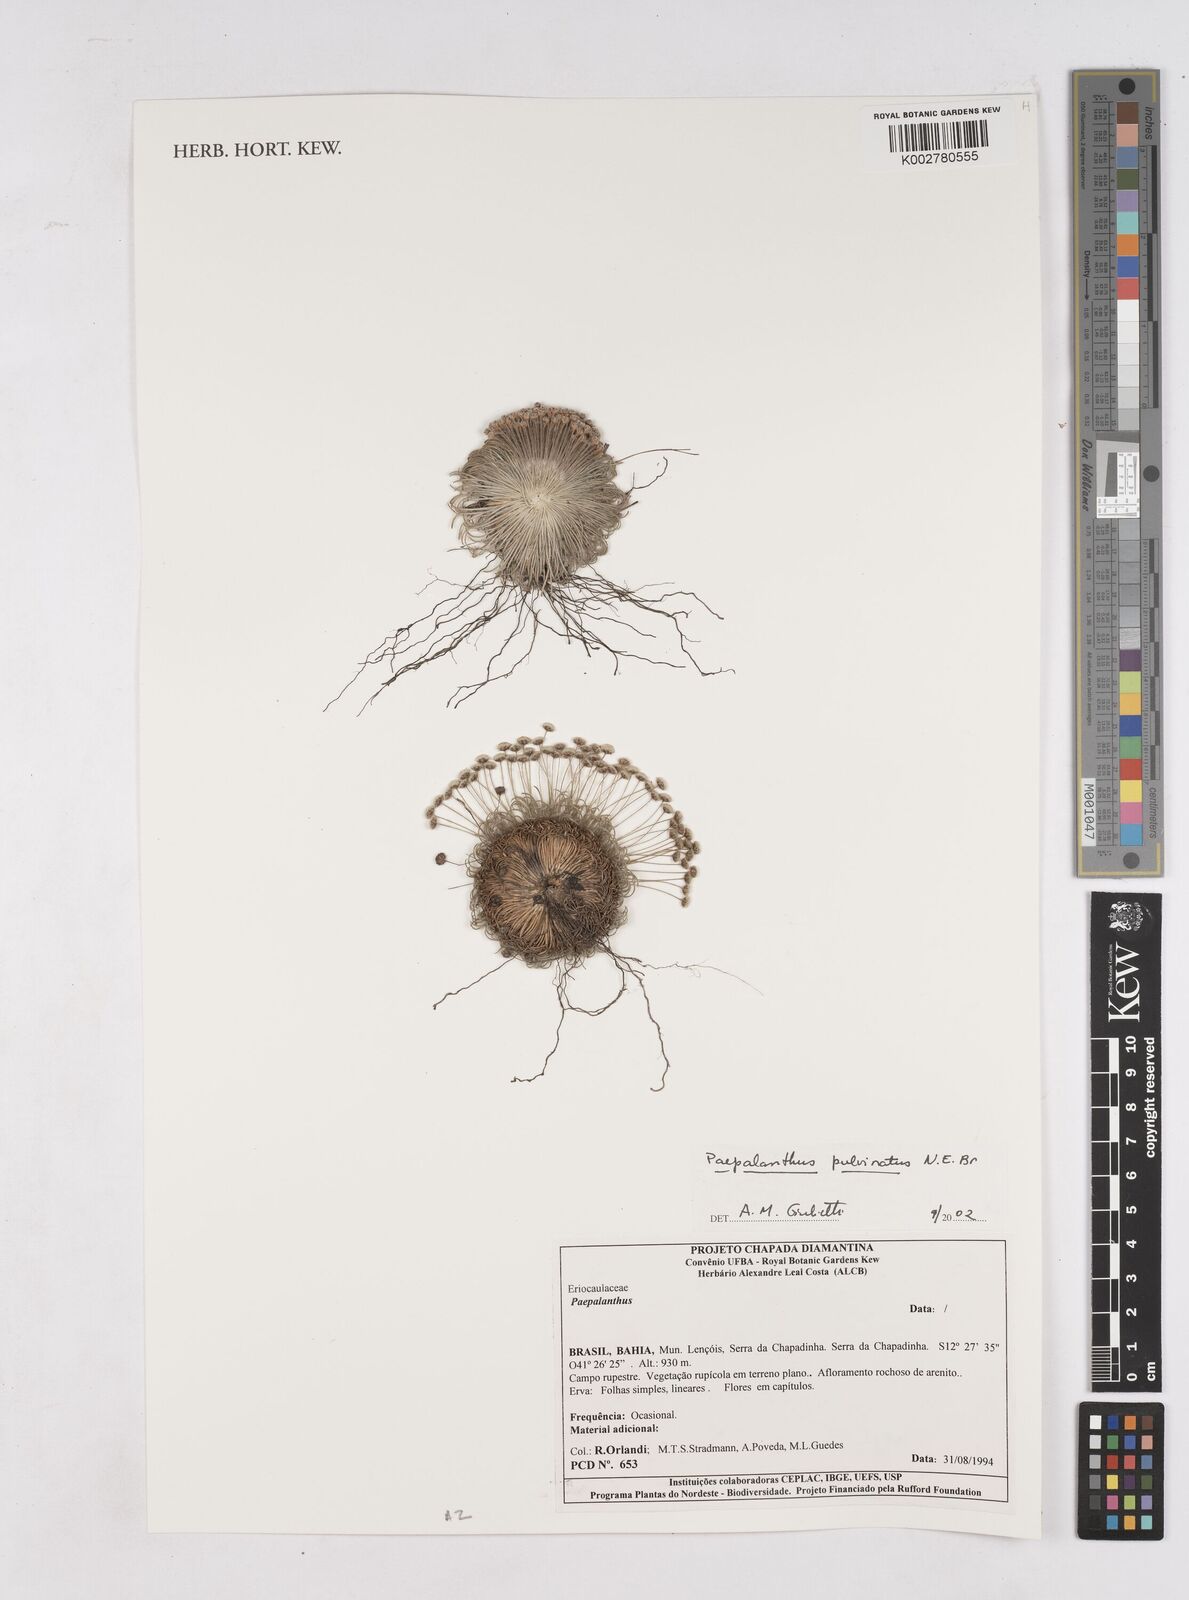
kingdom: Plantae
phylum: Tracheophyta
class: Liliopsida
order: Poales
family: Eriocaulaceae
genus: Paepalanthus
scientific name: Paepalanthus pulvinatus
